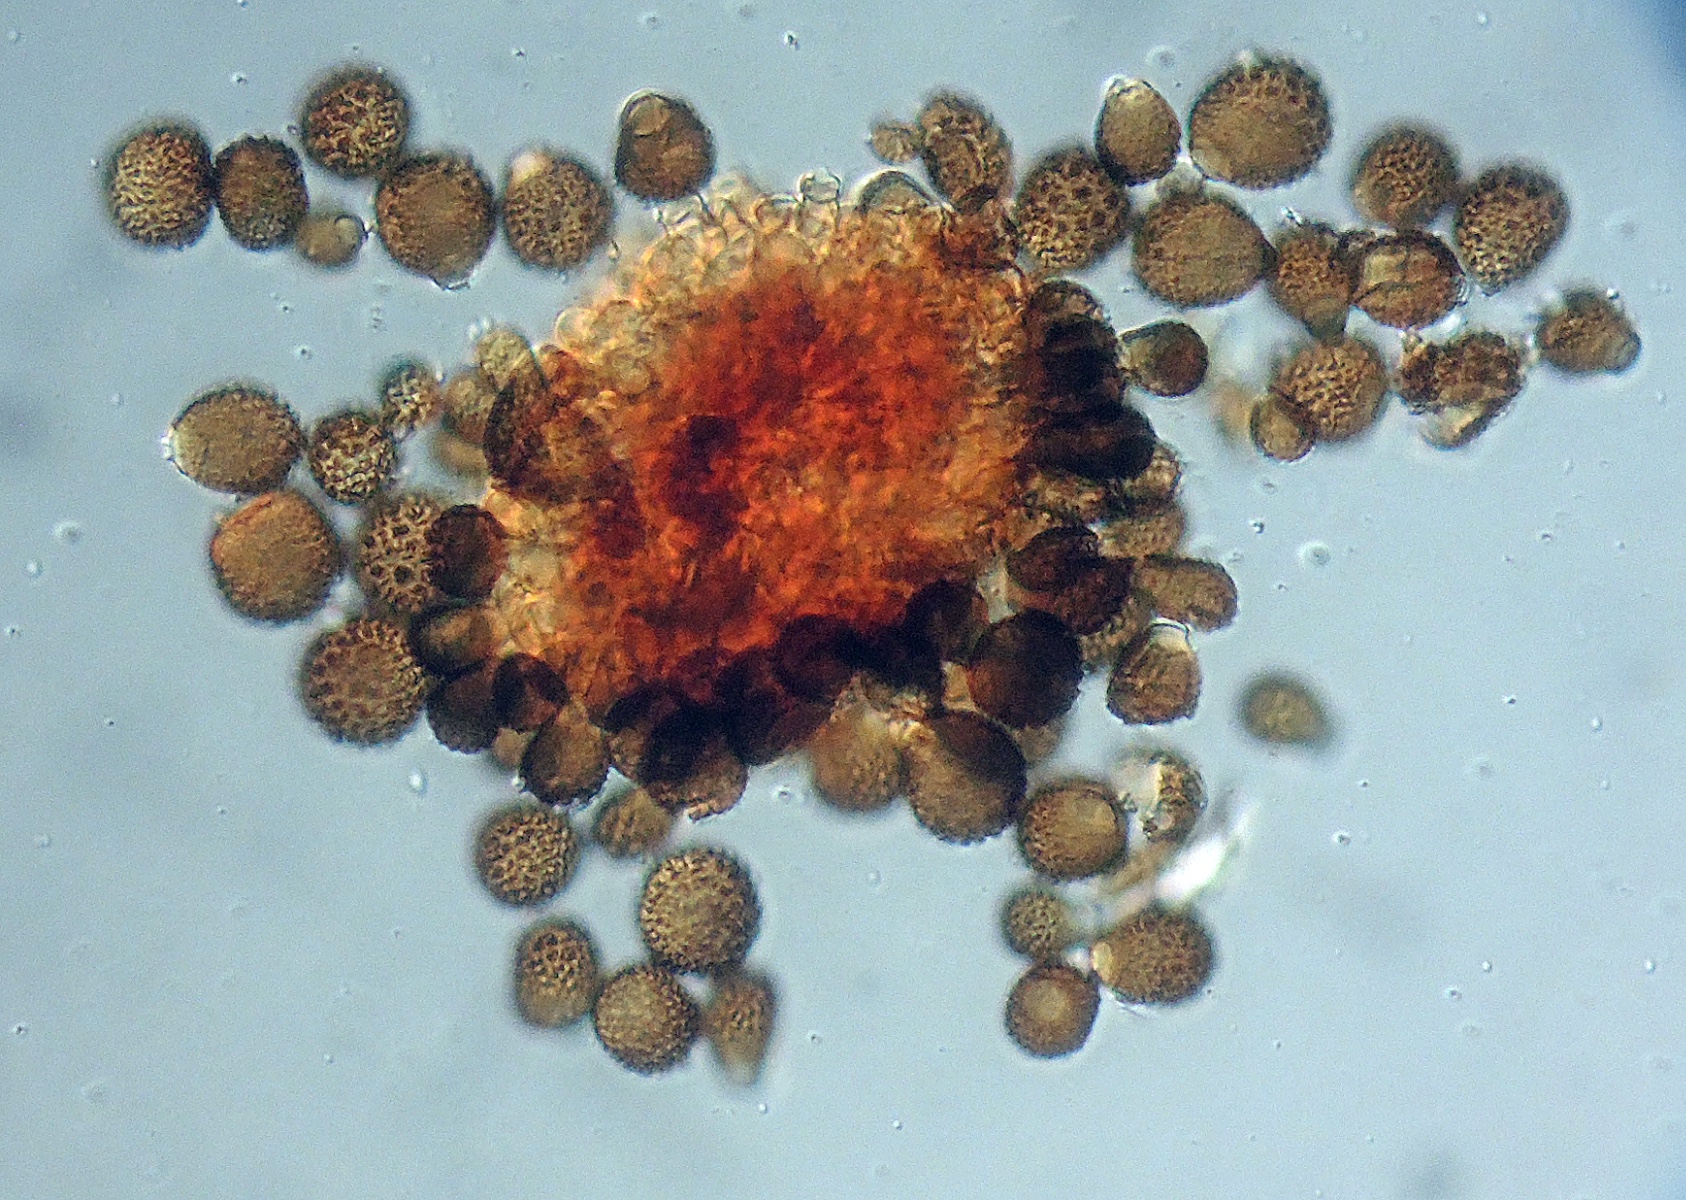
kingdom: Fungi
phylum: Ascomycota
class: Dothideomycetes
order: Pleosporales
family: Didymellaceae
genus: Epicoccum
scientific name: Epicoccum nigrum
